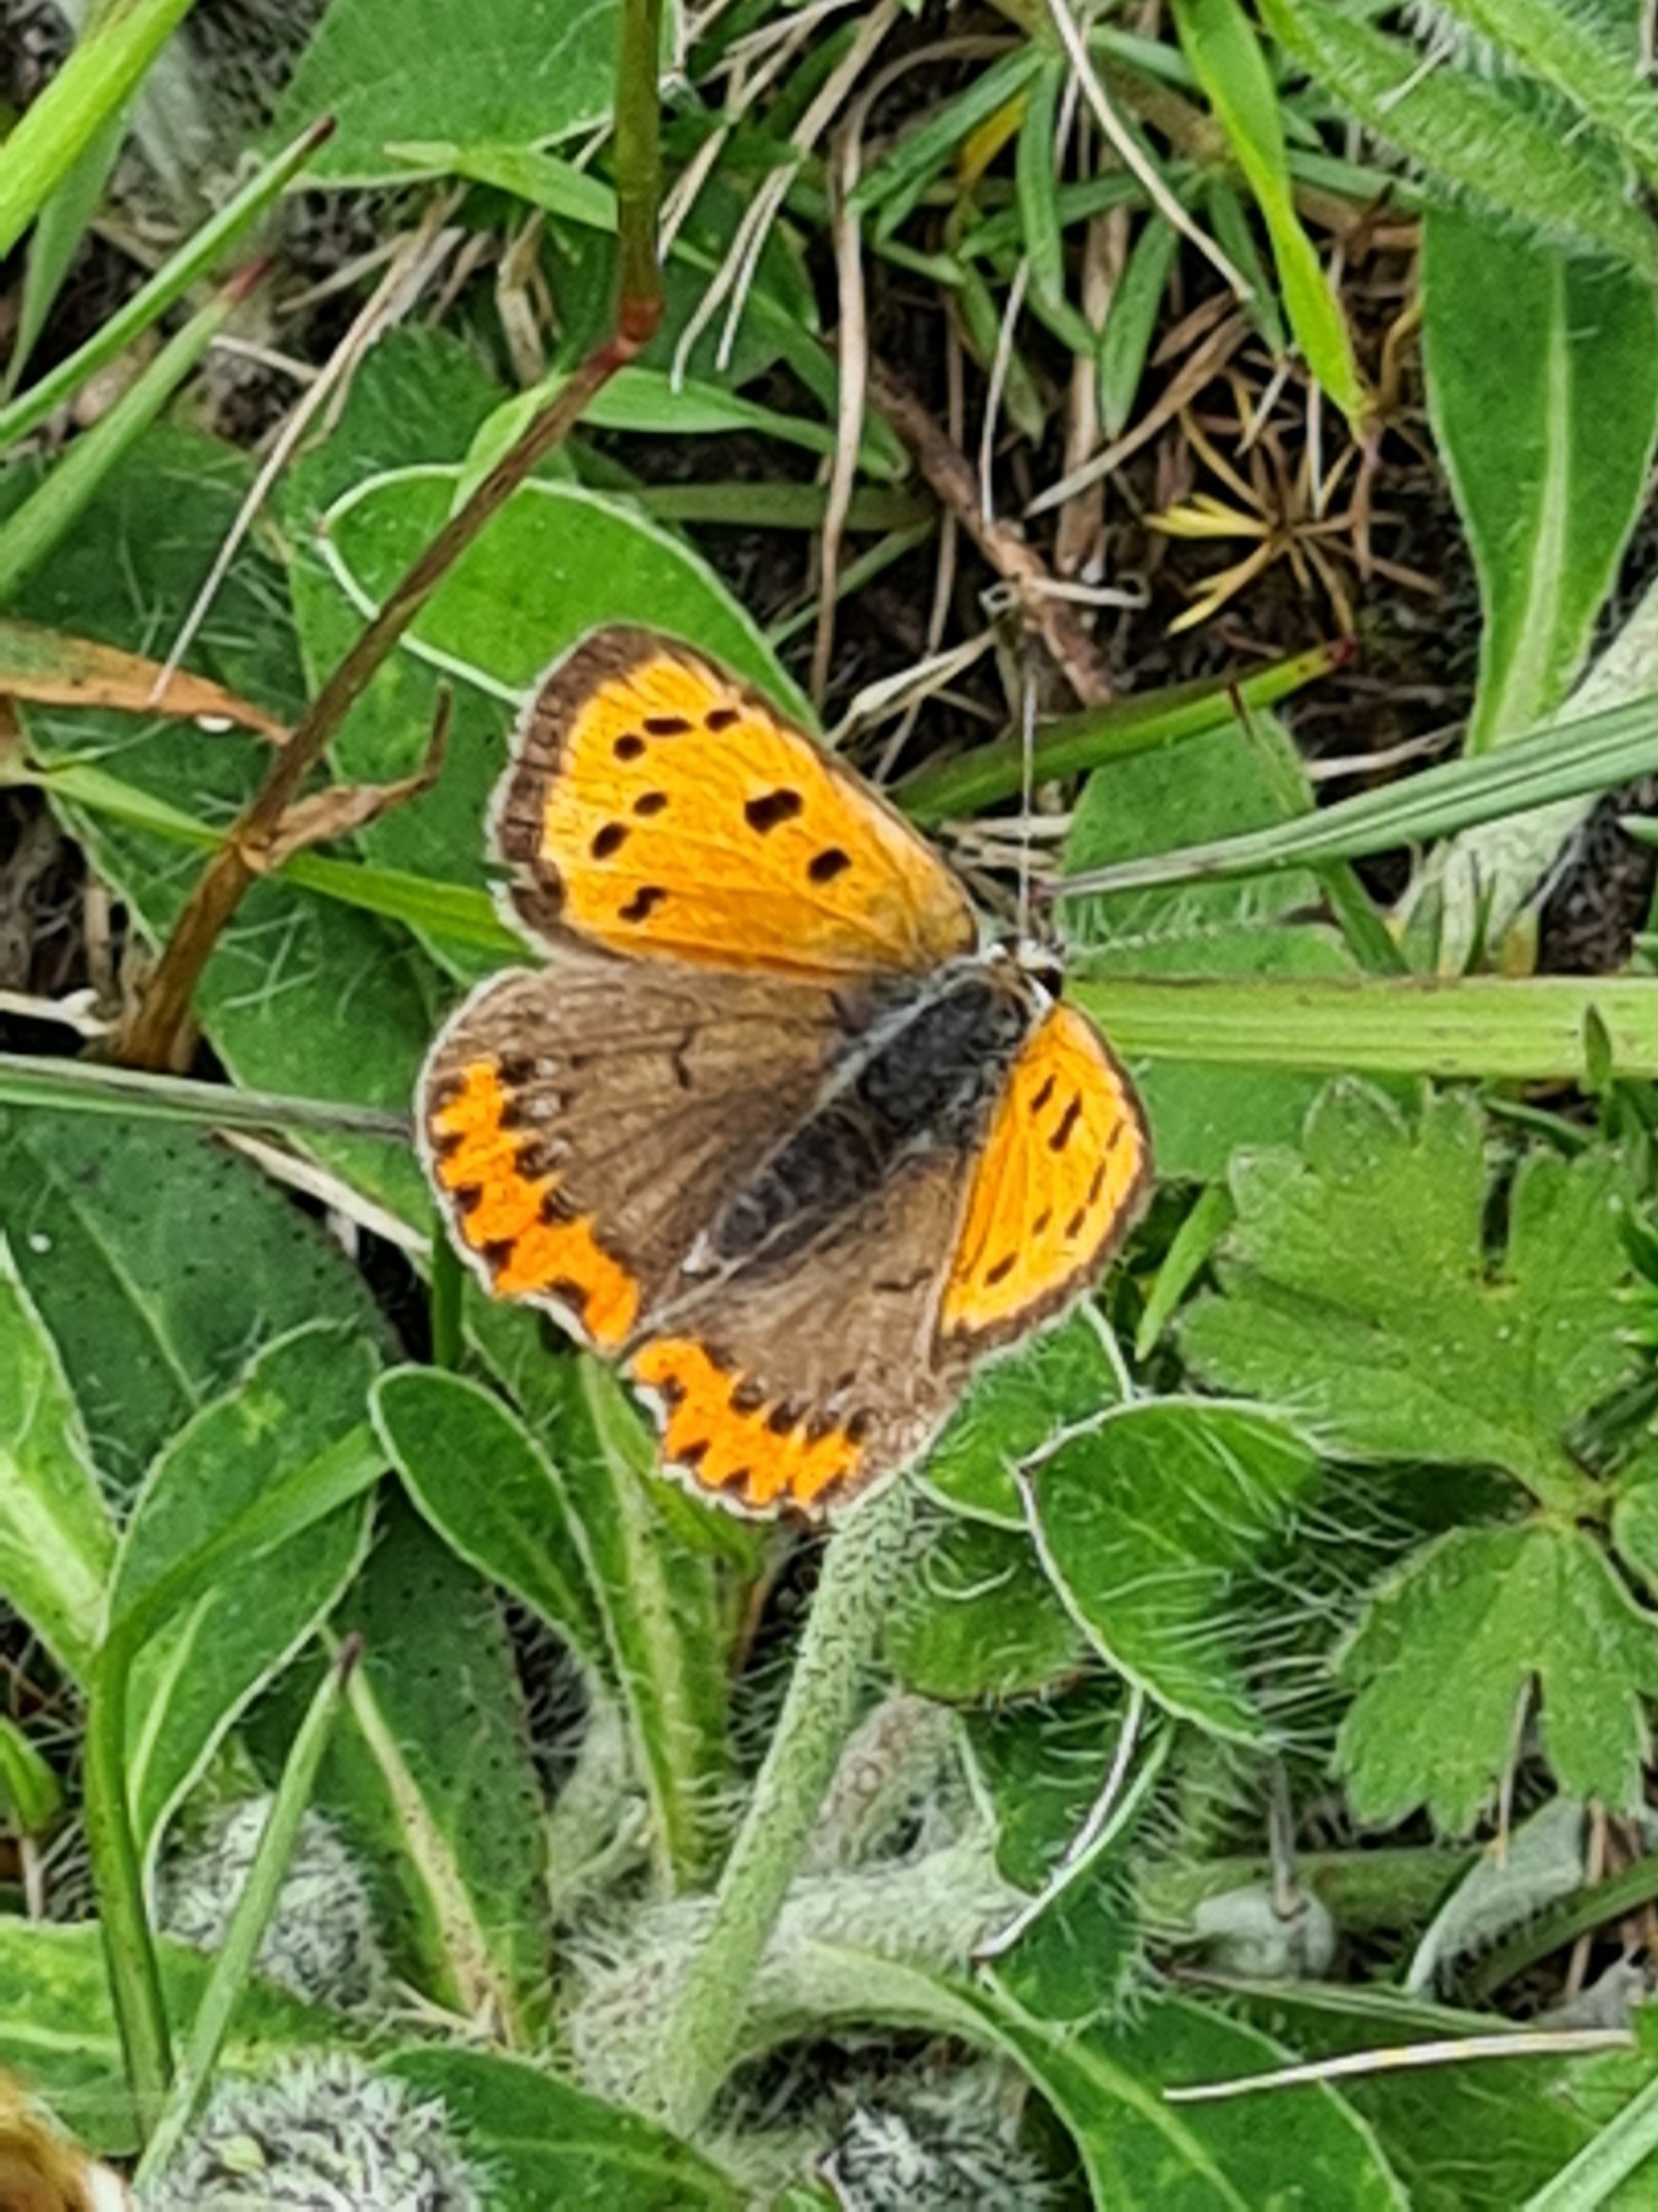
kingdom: Animalia
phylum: Arthropoda
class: Insecta
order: Lepidoptera
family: Lycaenidae
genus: Lycaena
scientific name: Lycaena phlaeas
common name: Lille ildfugl
